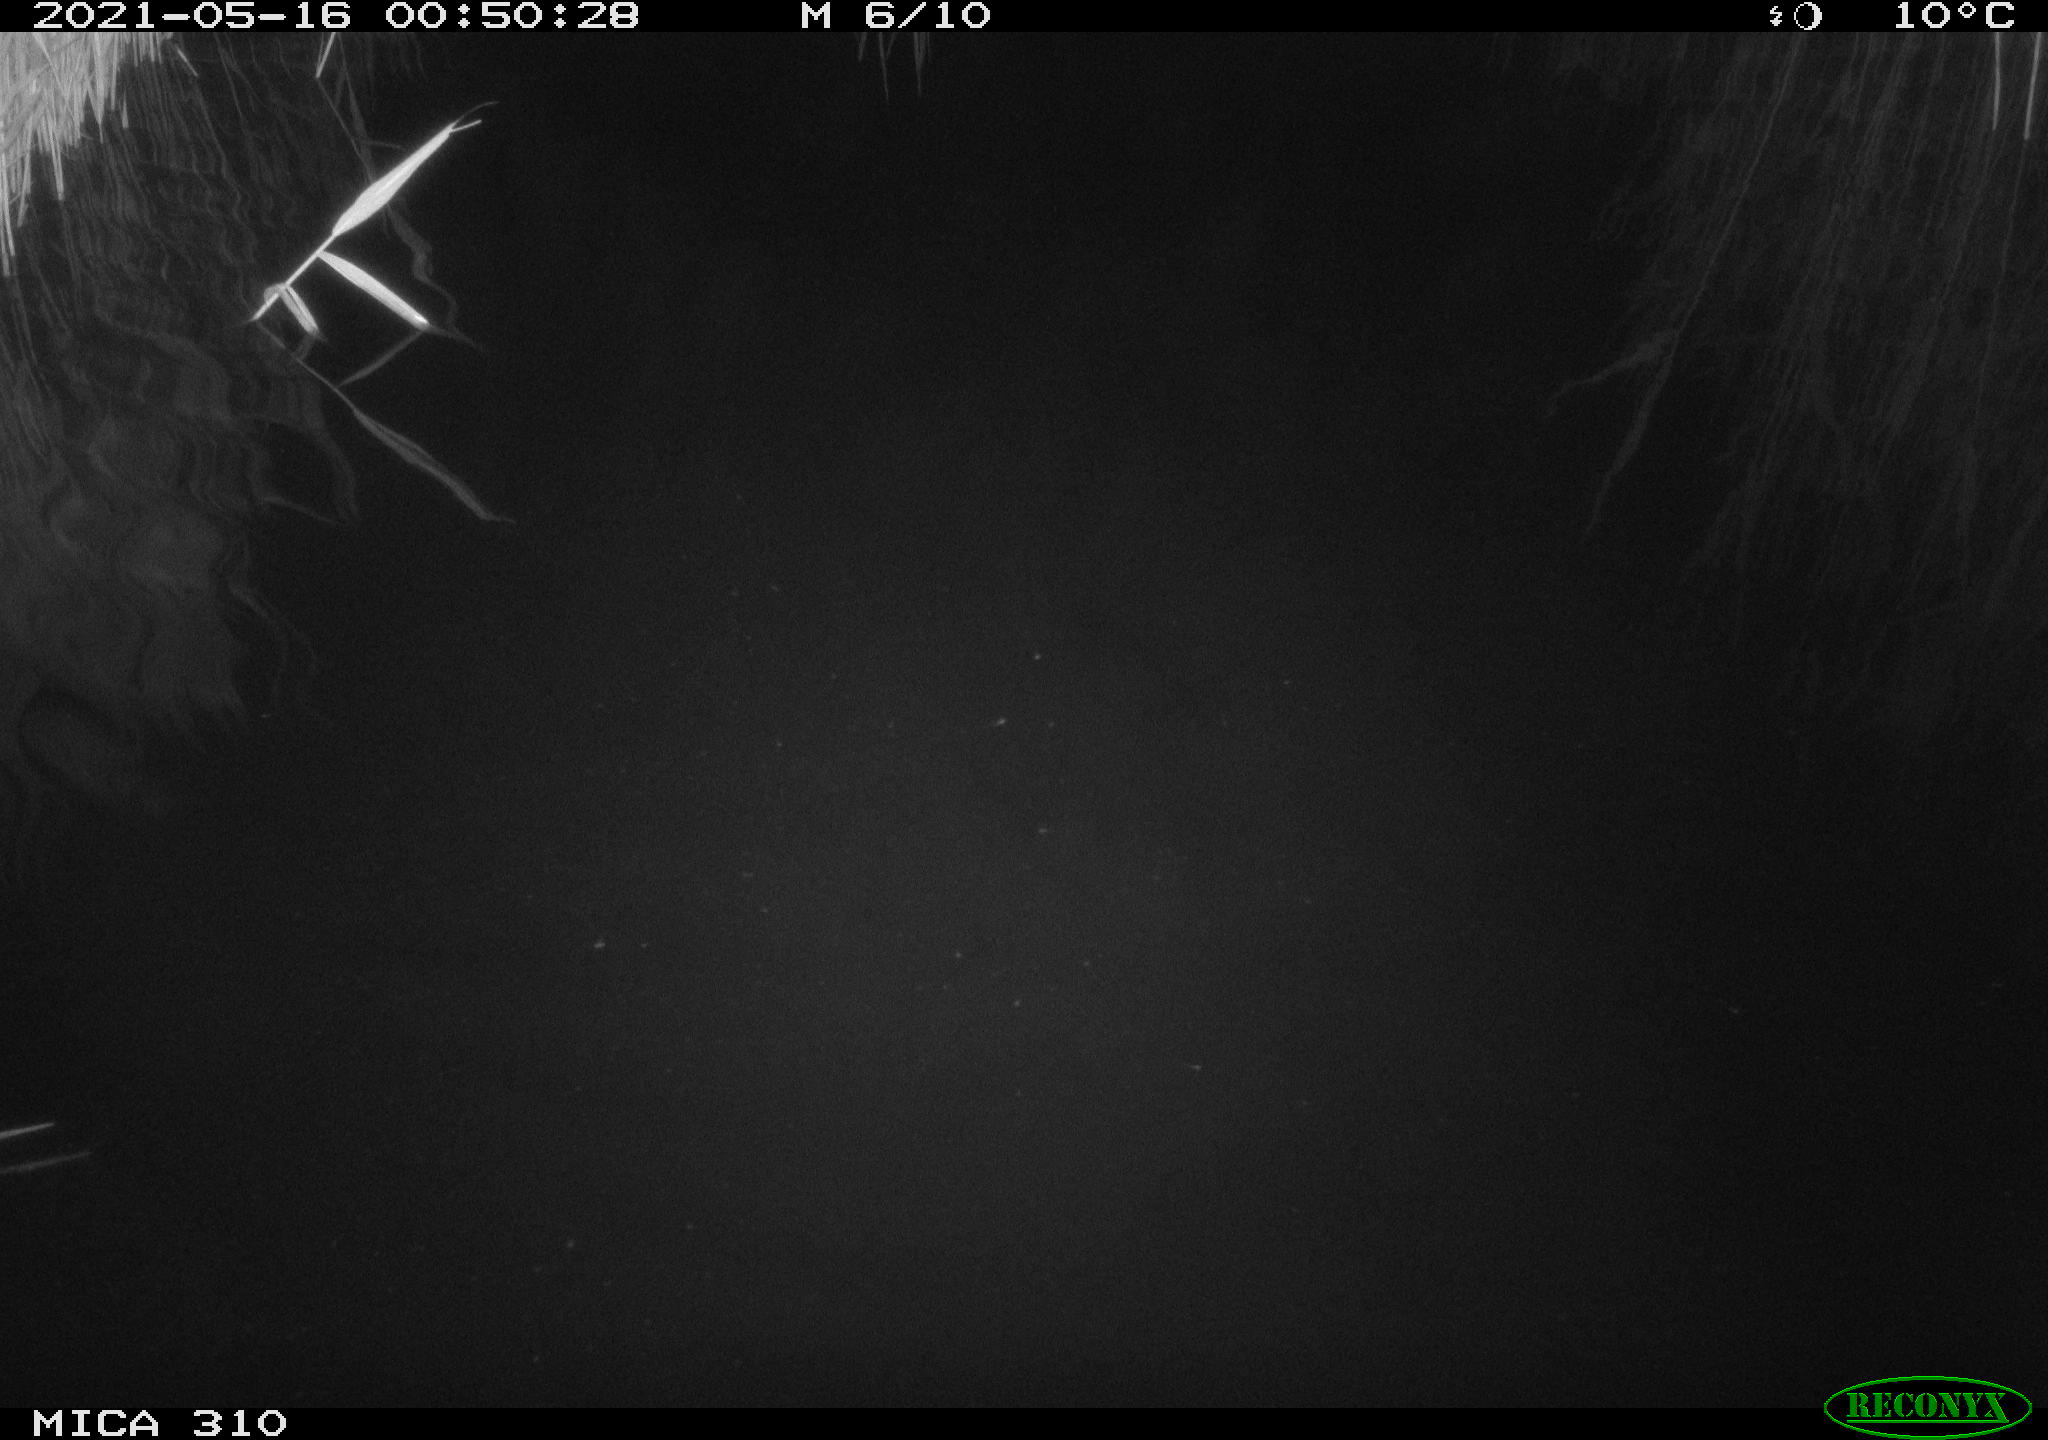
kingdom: Animalia
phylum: Chordata
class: Aves
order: Anseriformes
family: Anatidae
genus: Anas
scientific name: Anas platyrhynchos
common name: Mallard
